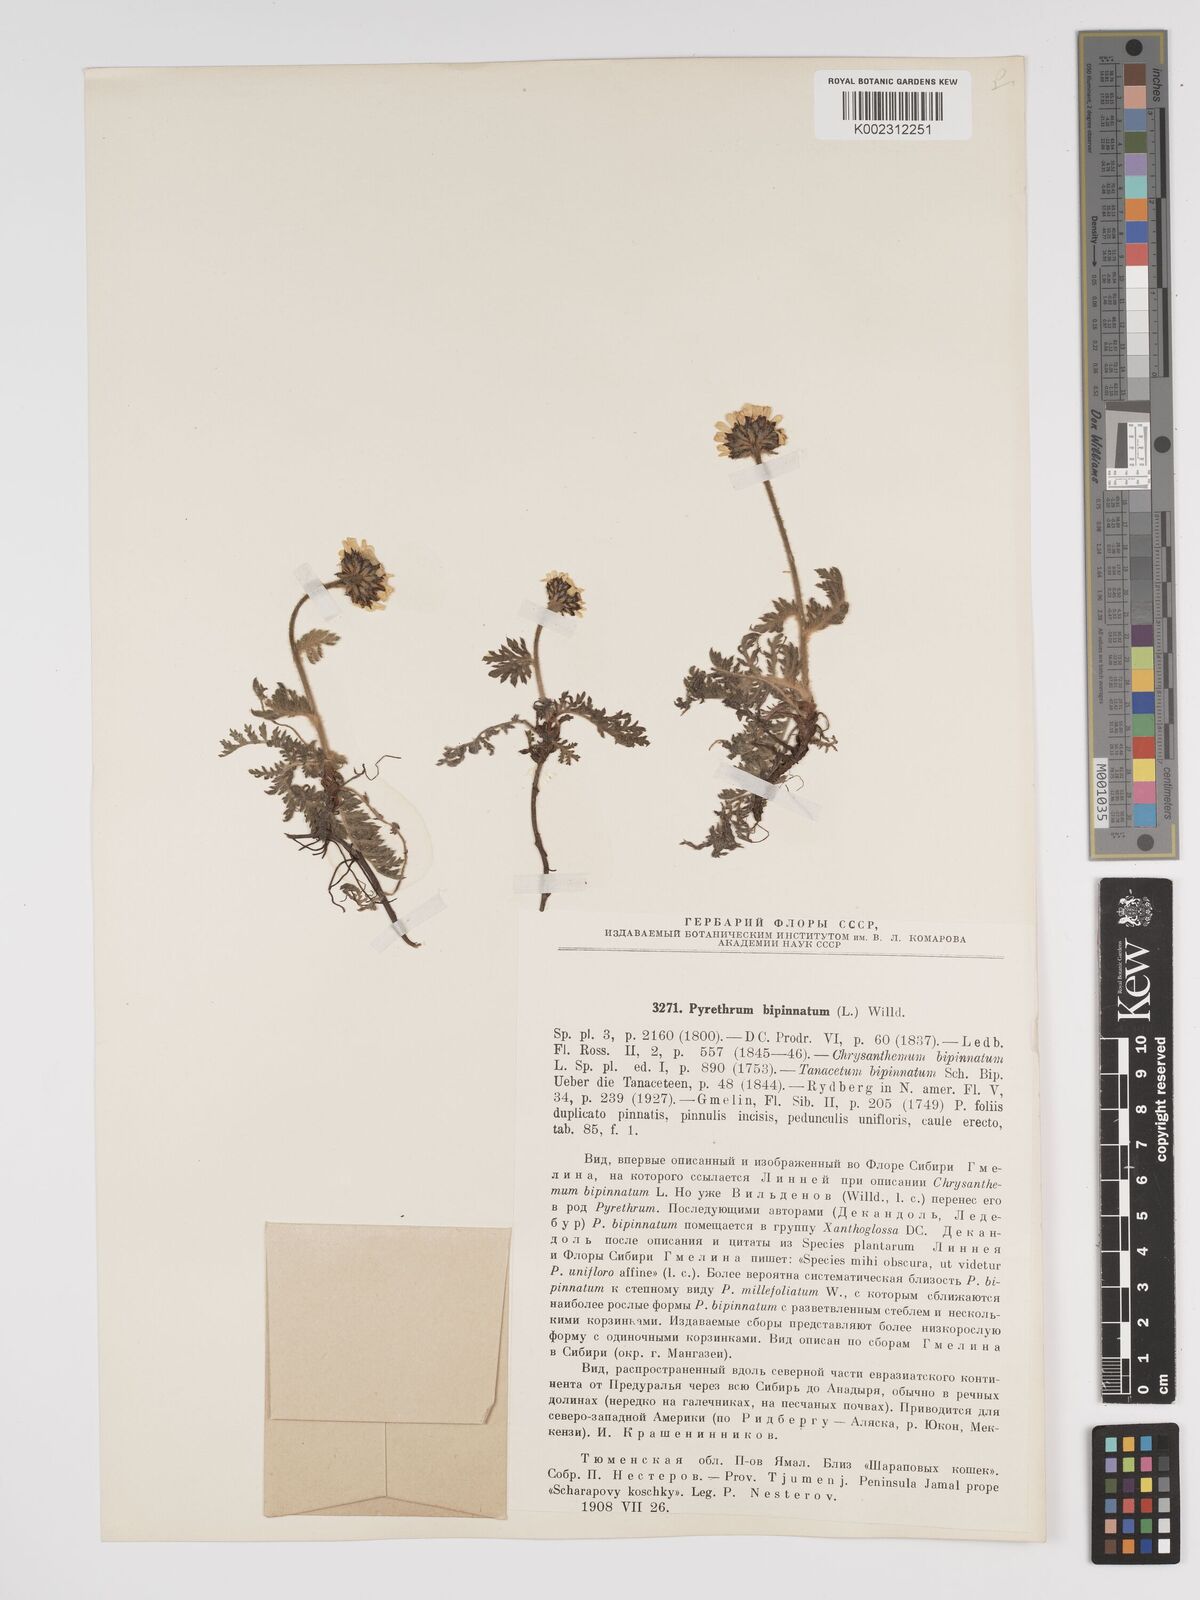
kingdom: Plantae
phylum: Tracheophyta
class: Magnoliopsida
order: Asterales
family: Asteraceae
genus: Tanacetum
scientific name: Tanacetum bipinnatum
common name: Dwarf tansy
